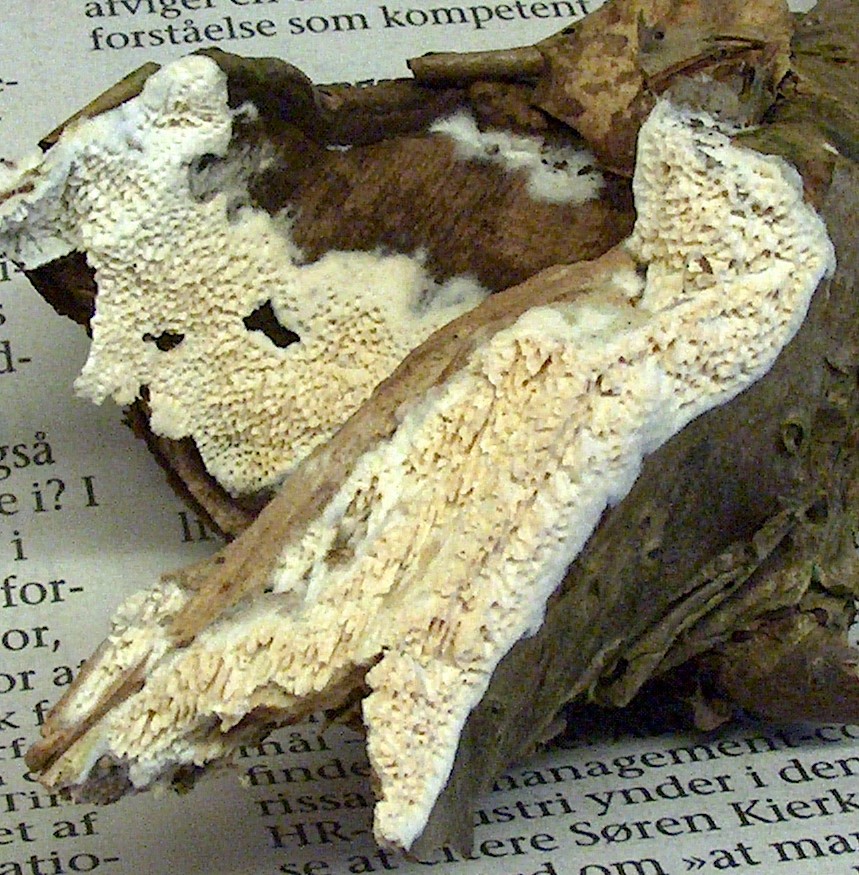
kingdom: Fungi
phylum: Basidiomycota
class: Agaricomycetes
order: Hymenochaetales
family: Schizoporaceae
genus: Schizopora
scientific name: Schizopora paradoxa
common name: hvid tandsvamp
